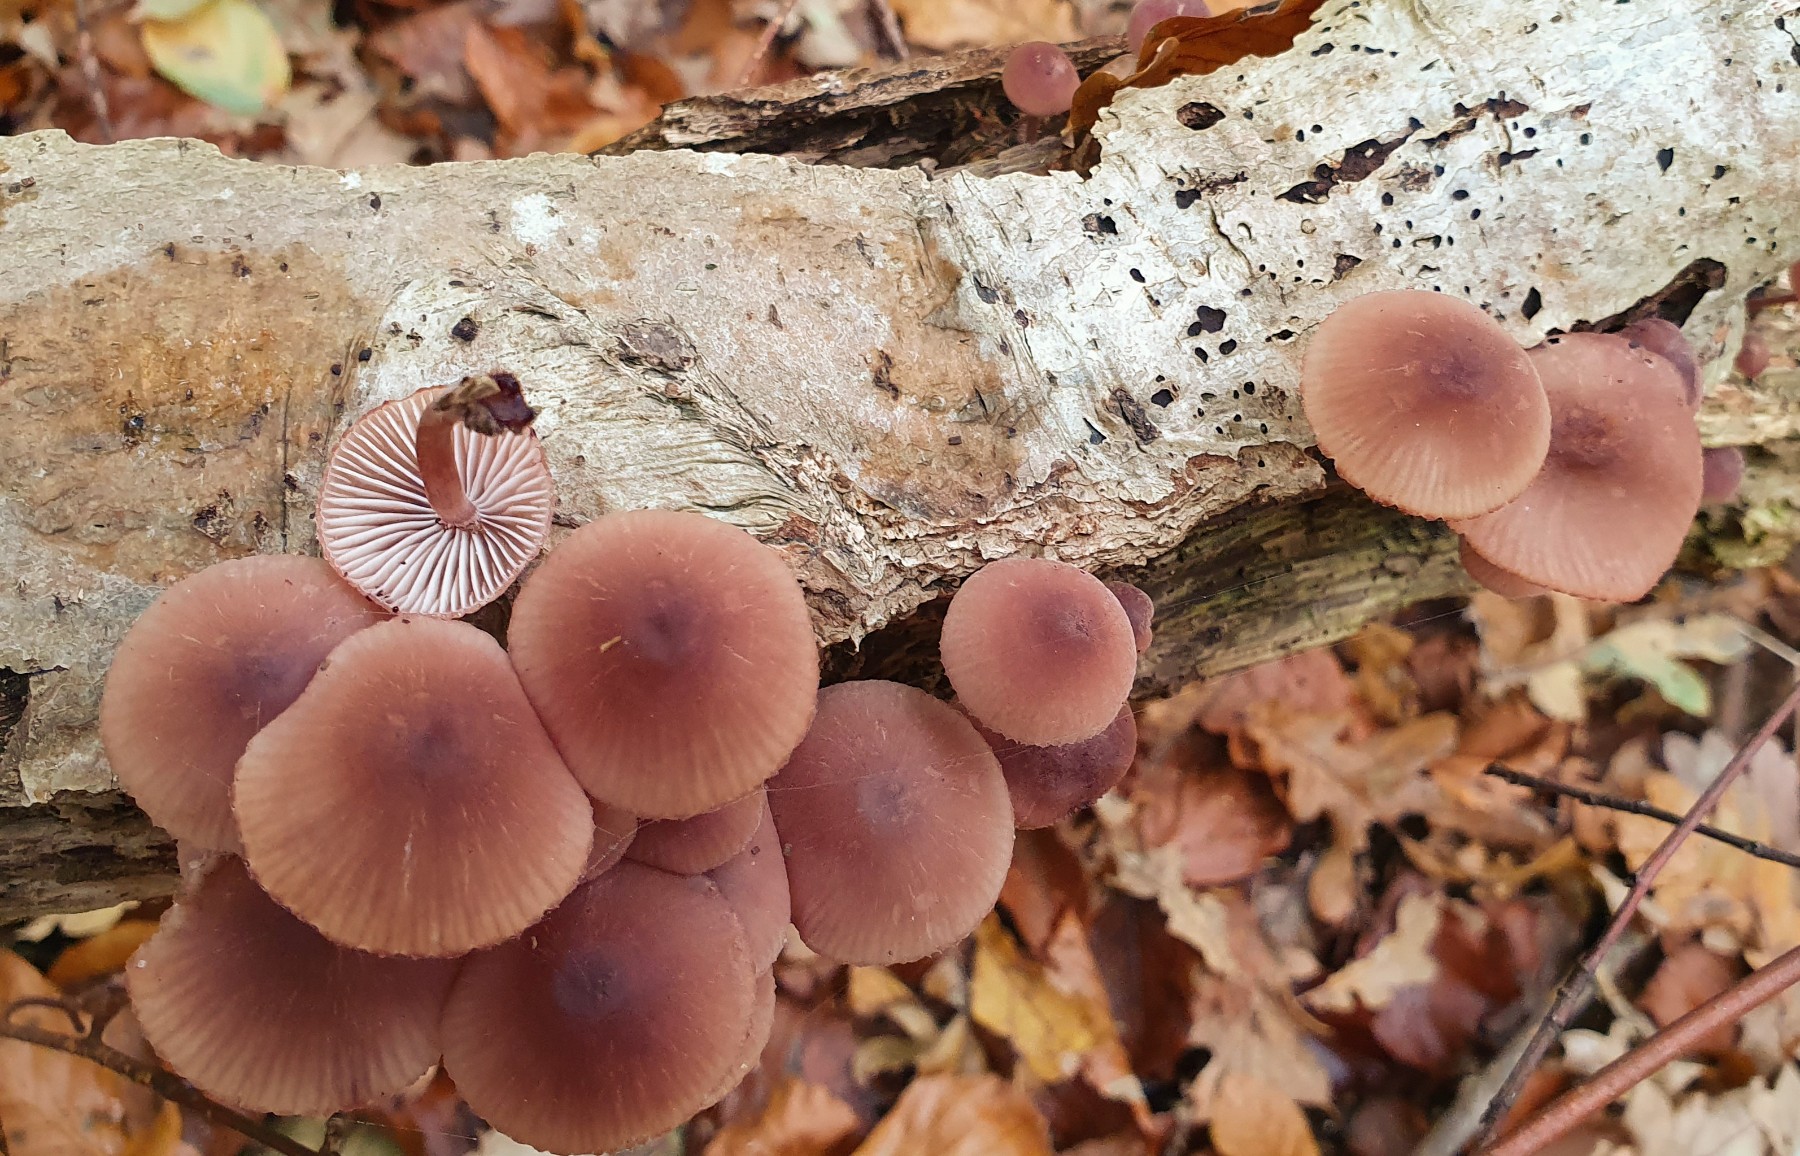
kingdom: Fungi
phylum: Basidiomycota
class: Agaricomycetes
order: Agaricales
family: Mycenaceae
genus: Mycena
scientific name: Mycena haematopus
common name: blødende huesvamp
